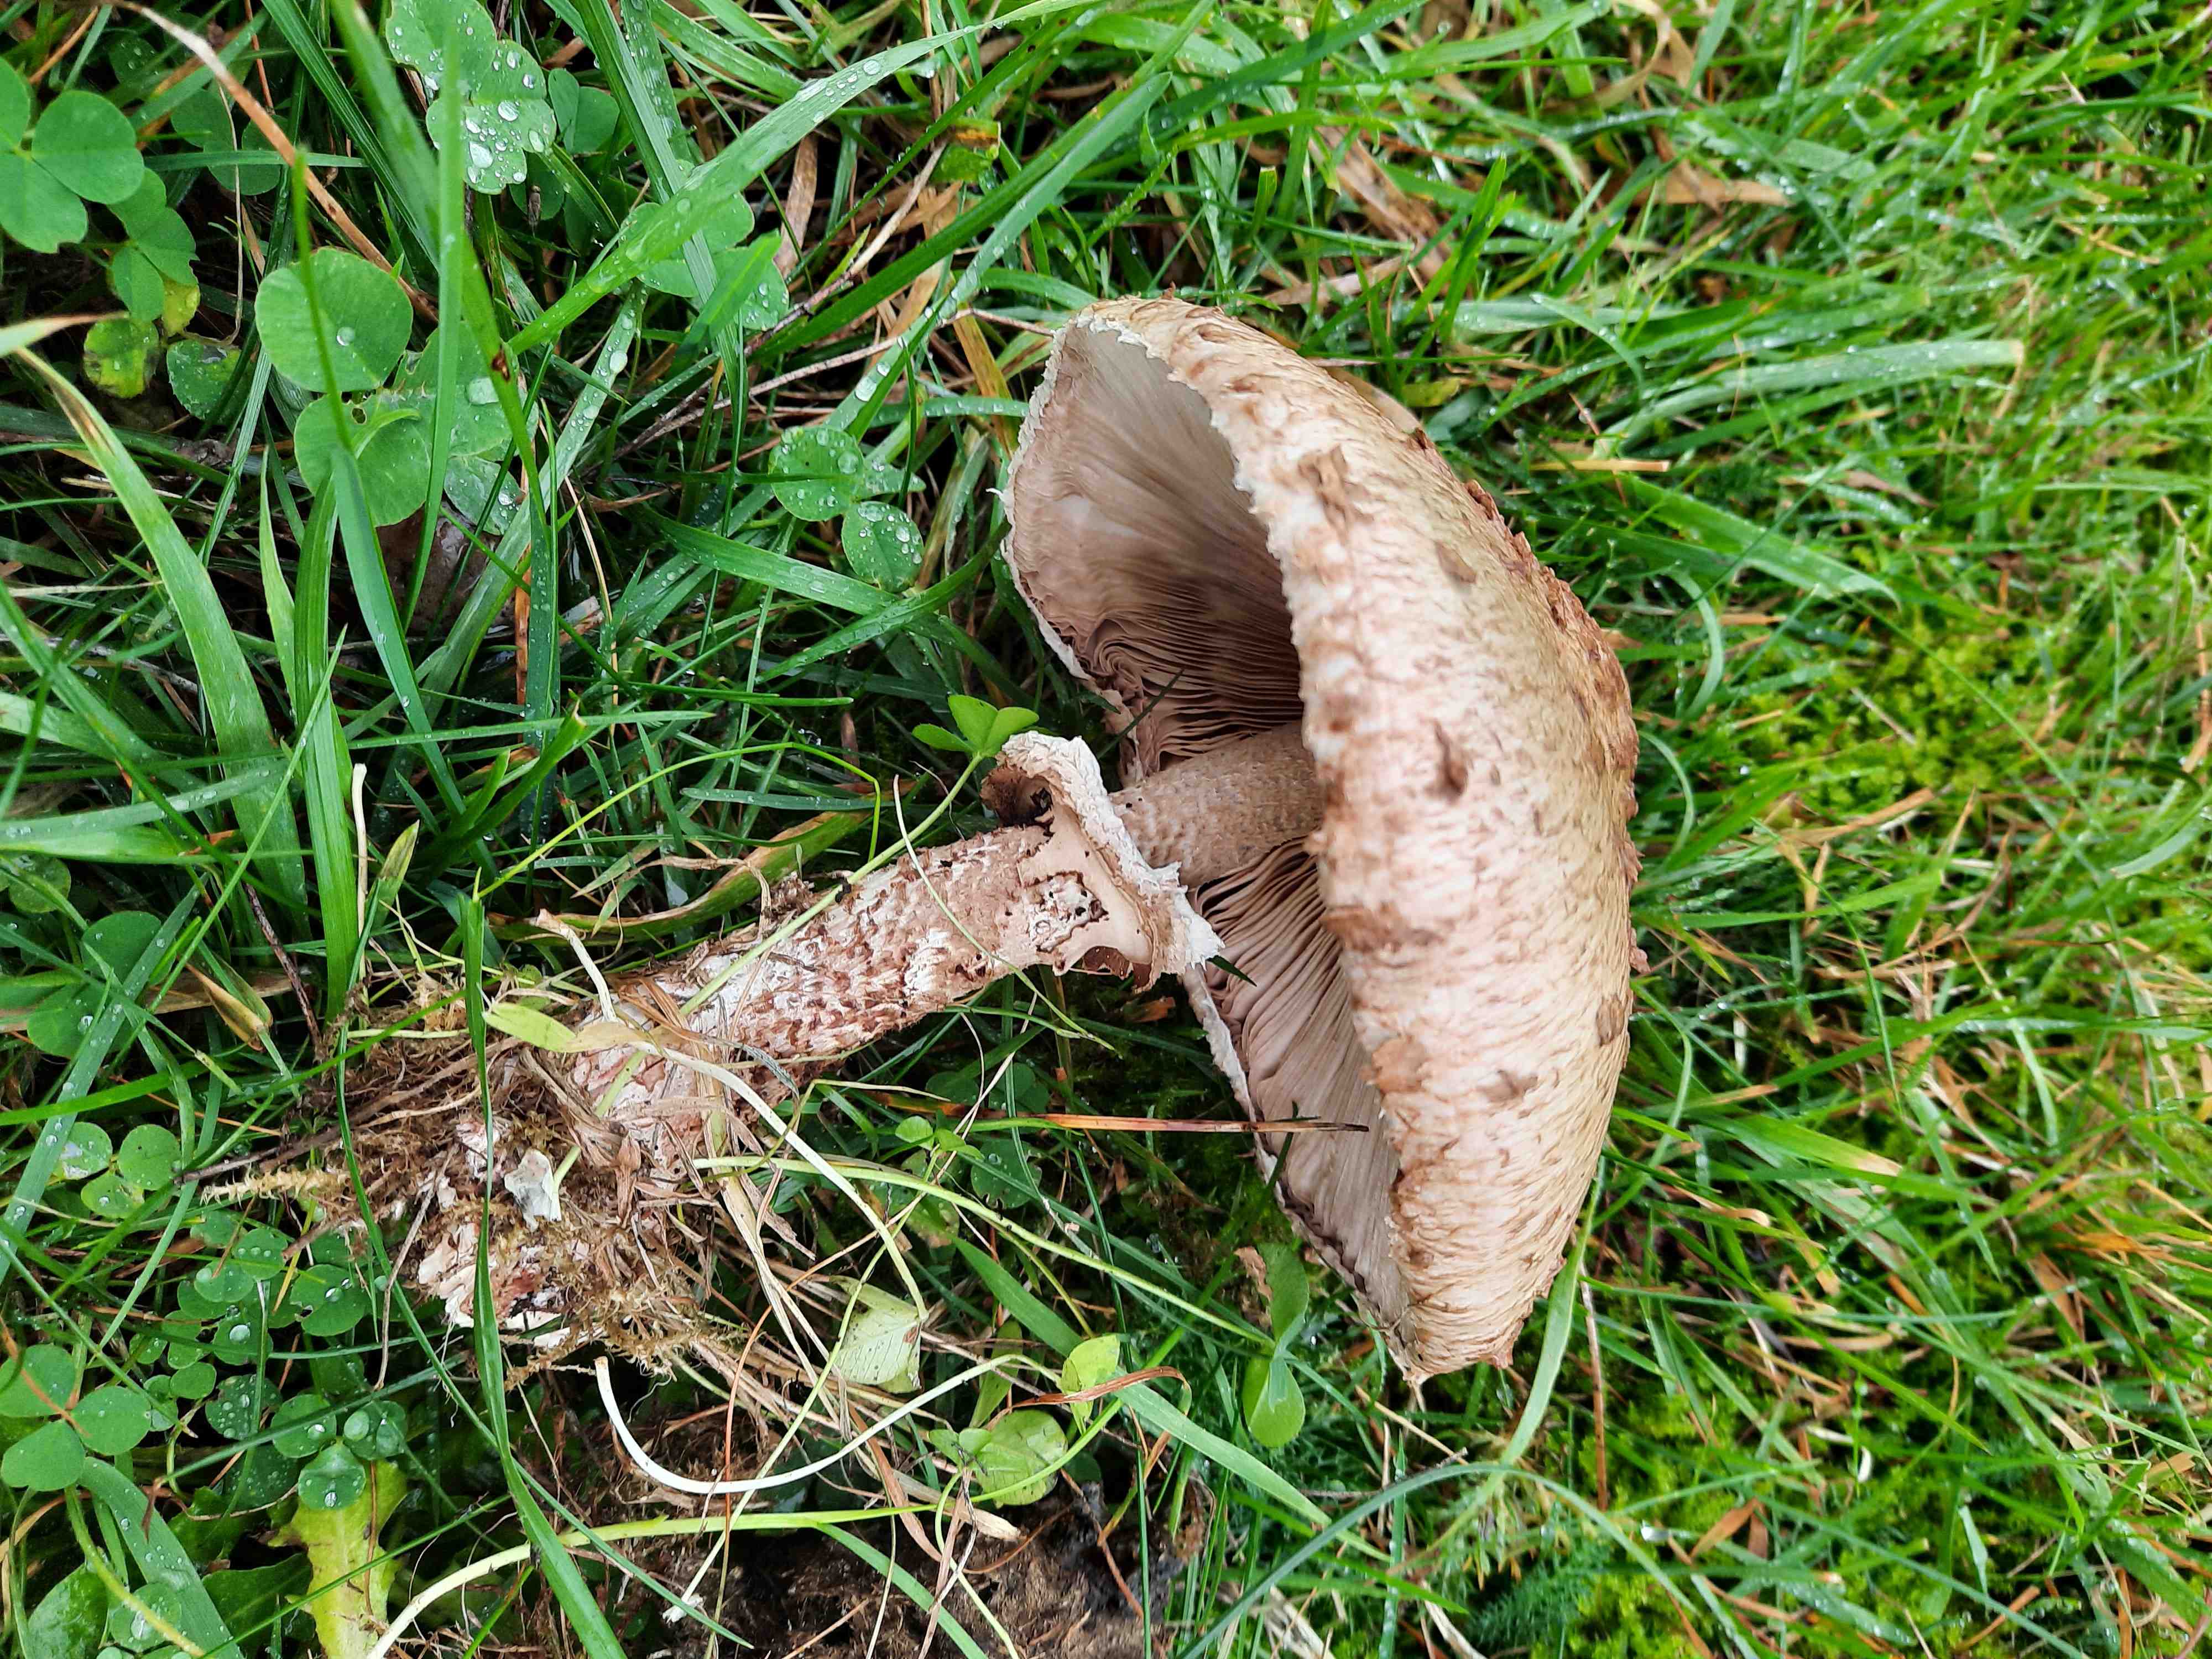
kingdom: Fungi
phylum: Basidiomycota
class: Agaricomycetes
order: Agaricales
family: Agaricaceae
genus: Macrolepiota
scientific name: Macrolepiota procera
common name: stor kæmpeparasolhat
